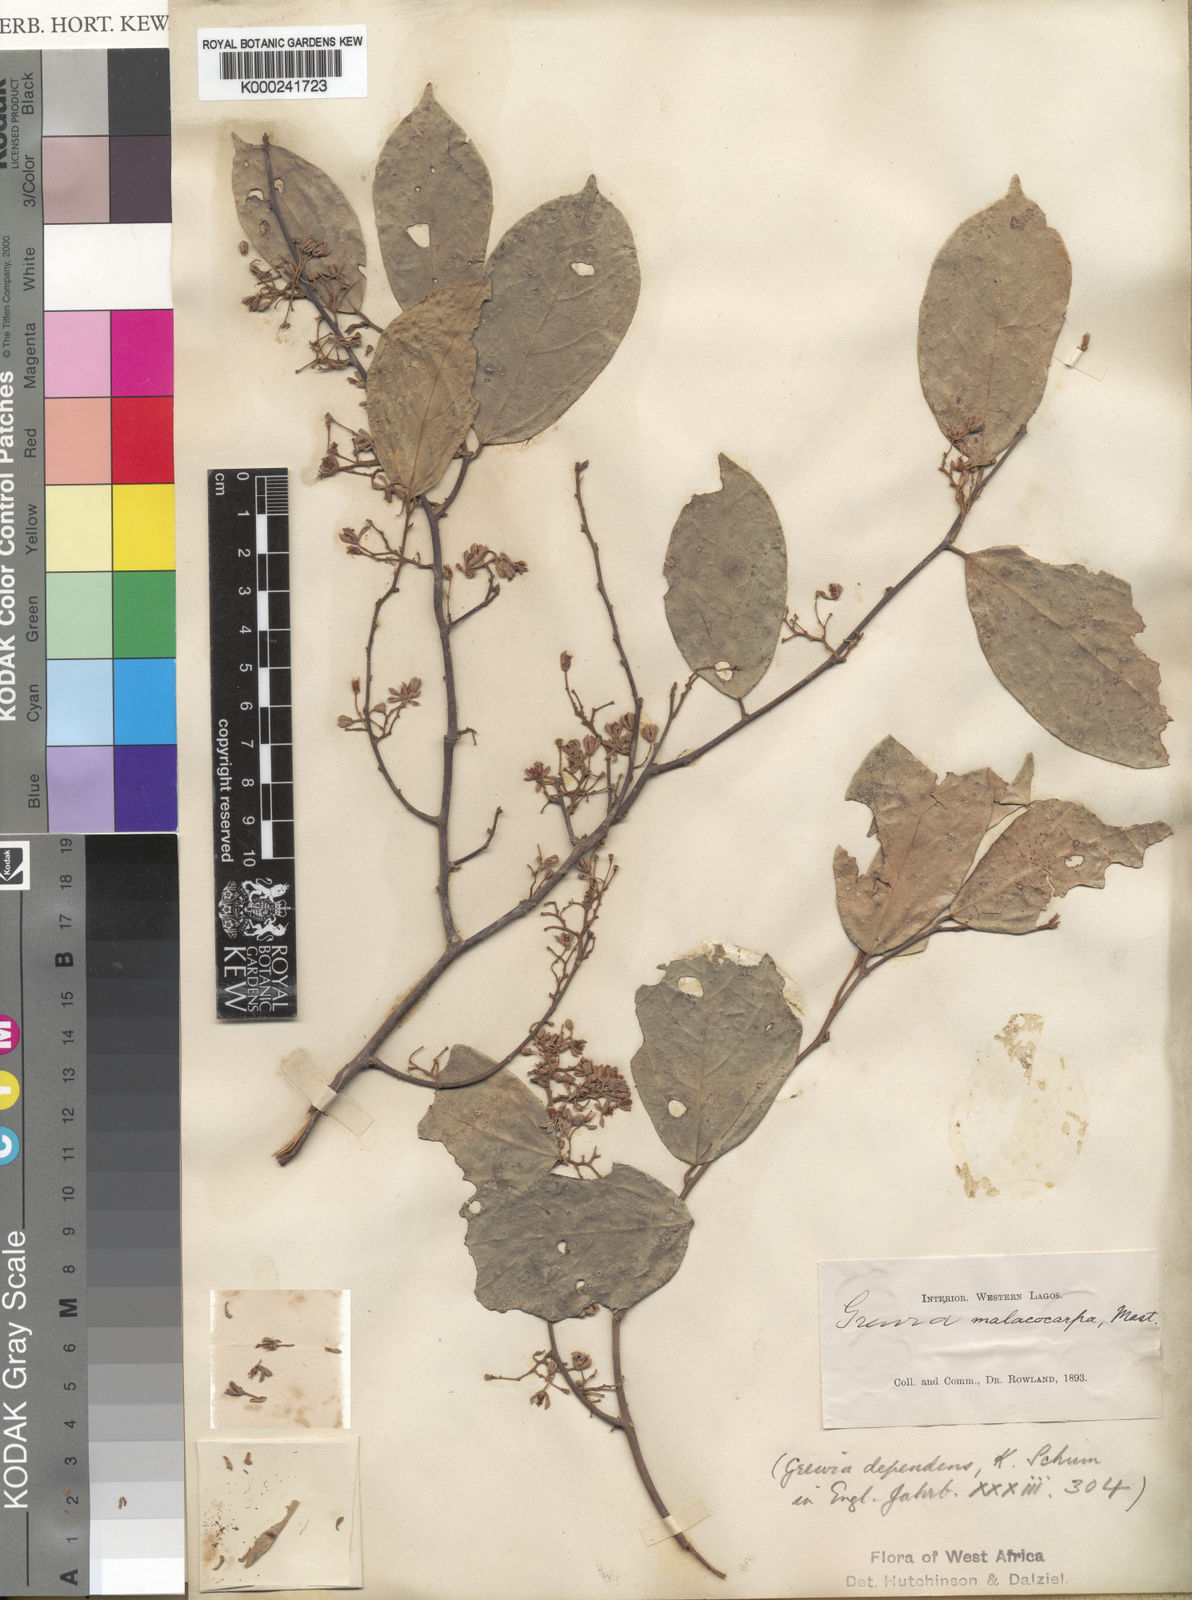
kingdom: Plantae
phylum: Tracheophyta
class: Magnoliopsida
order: Malvales
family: Malvaceae
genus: Microcos
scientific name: Microcos malacocarpa
